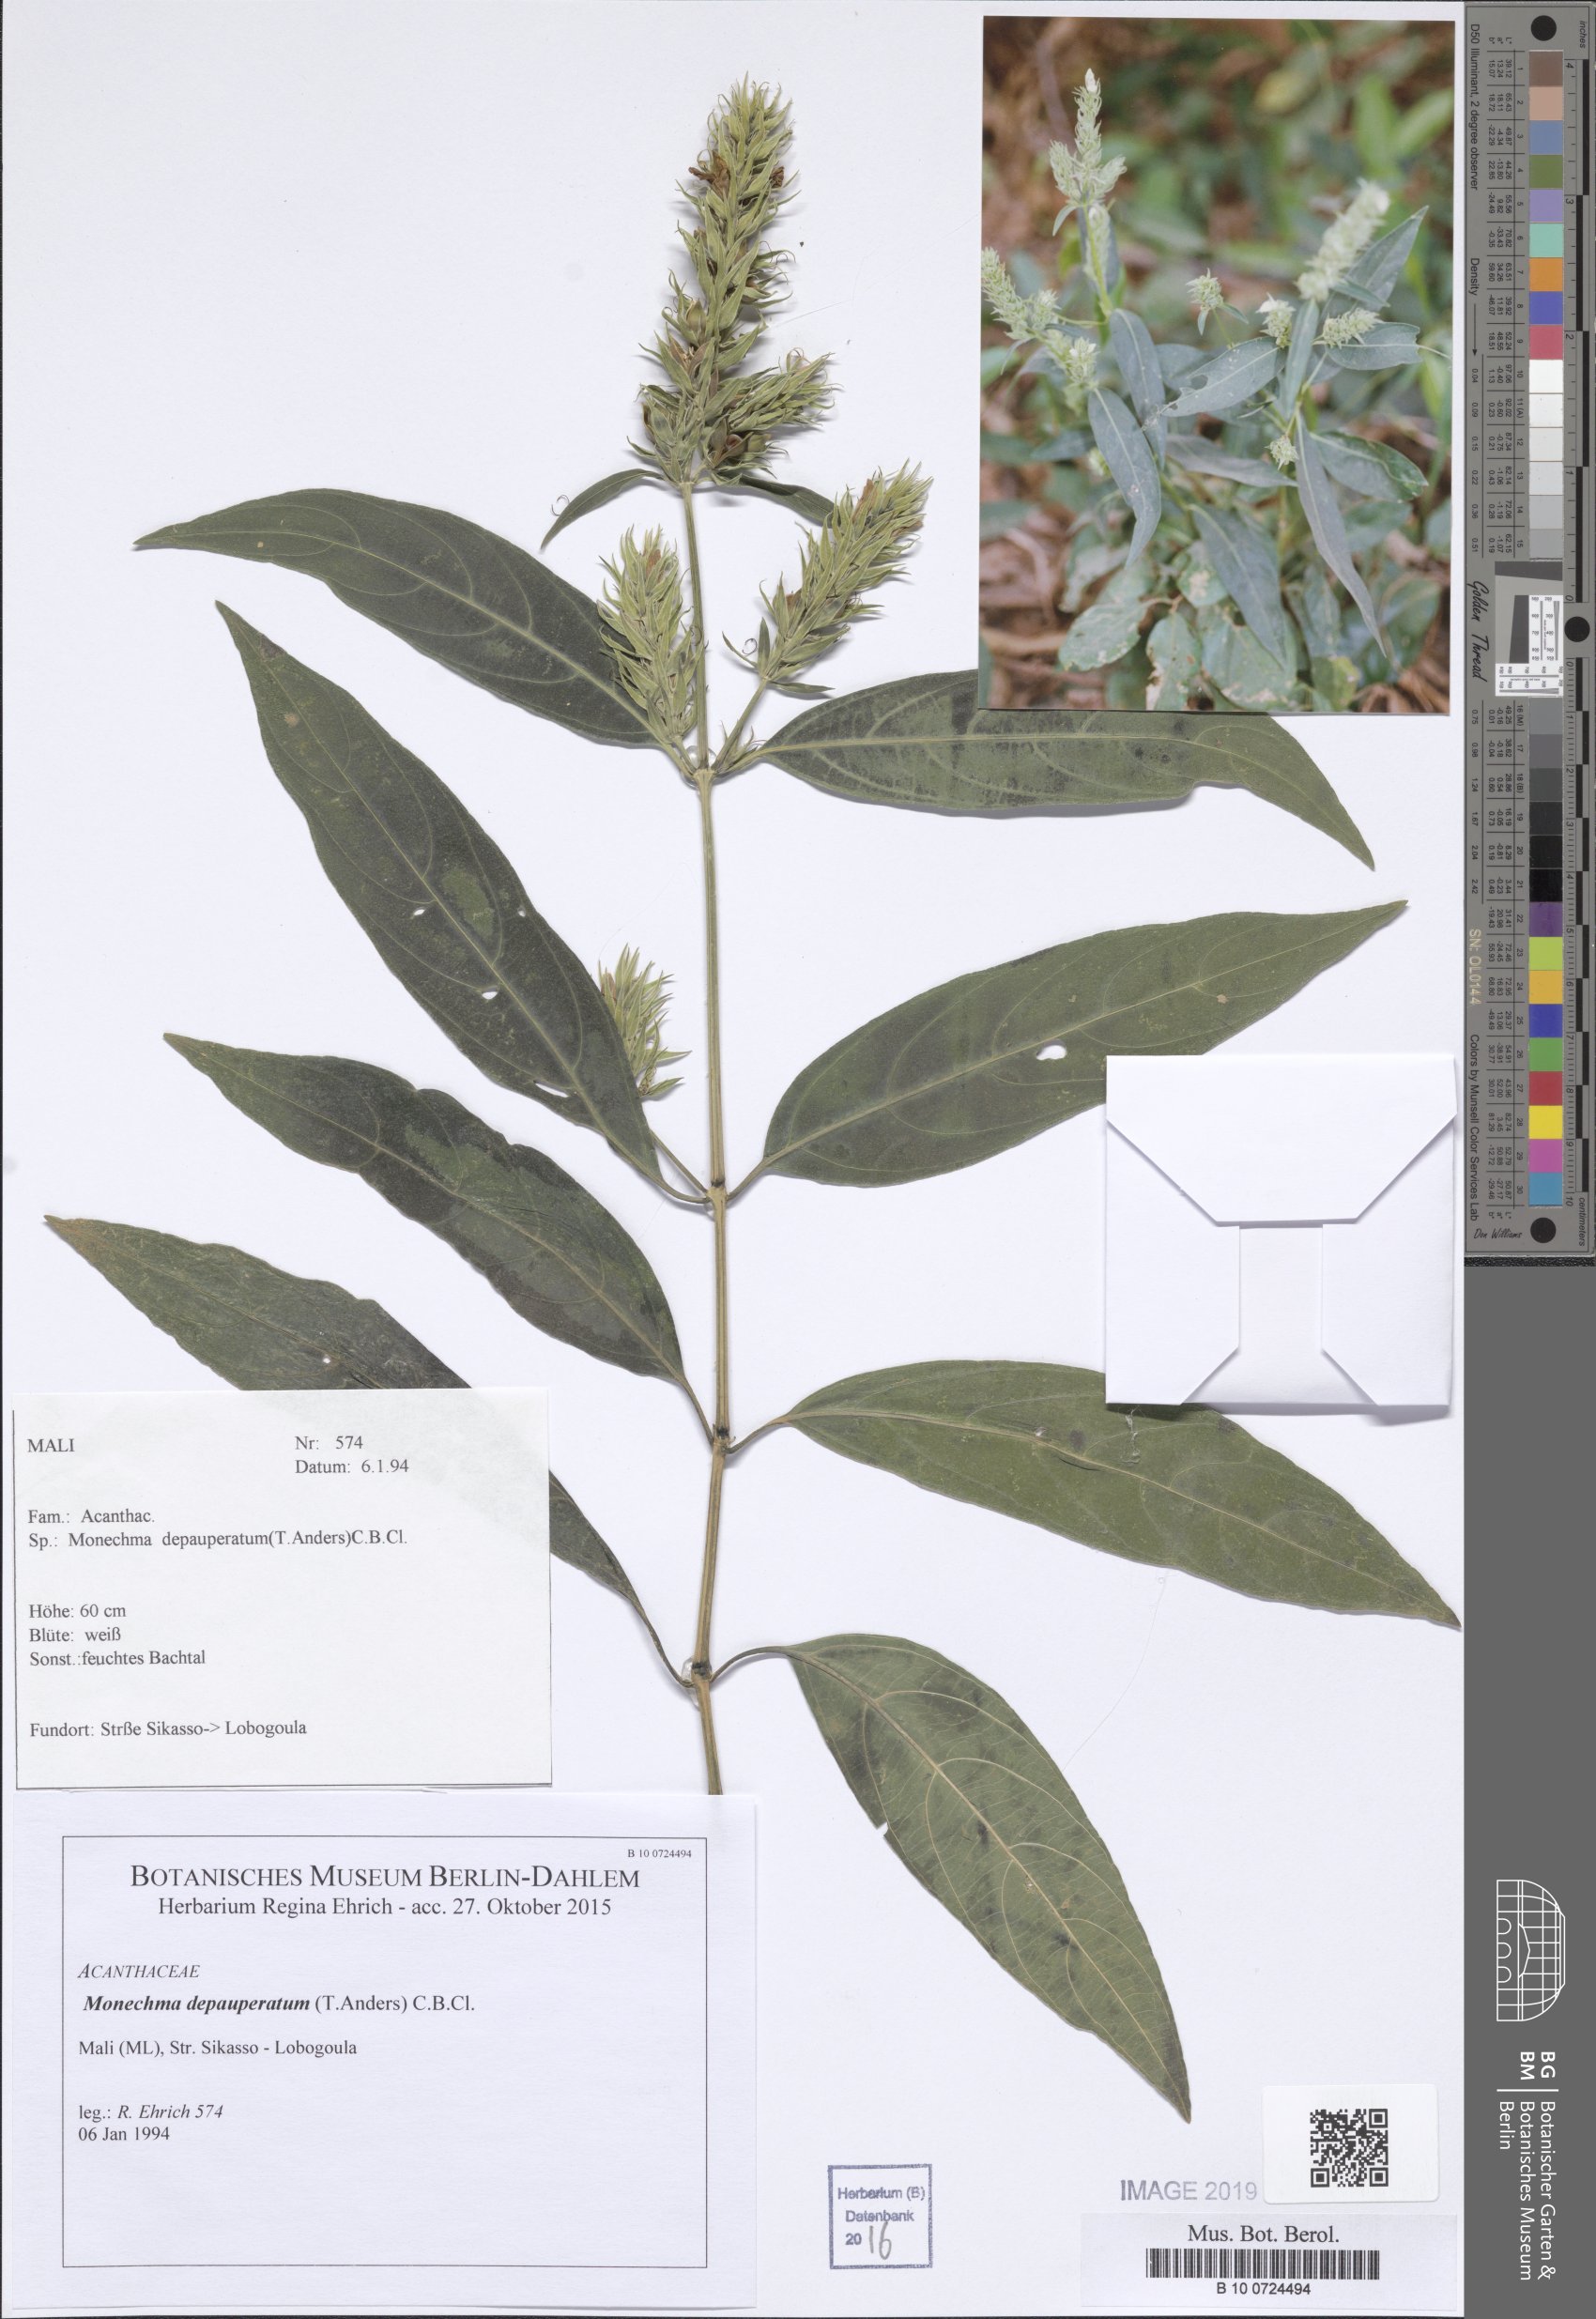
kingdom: Plantae
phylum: Tracheophyta
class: Magnoliopsida
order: Lamiales
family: Acanthaceae
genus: Monechma
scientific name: Monechma depauperatum
